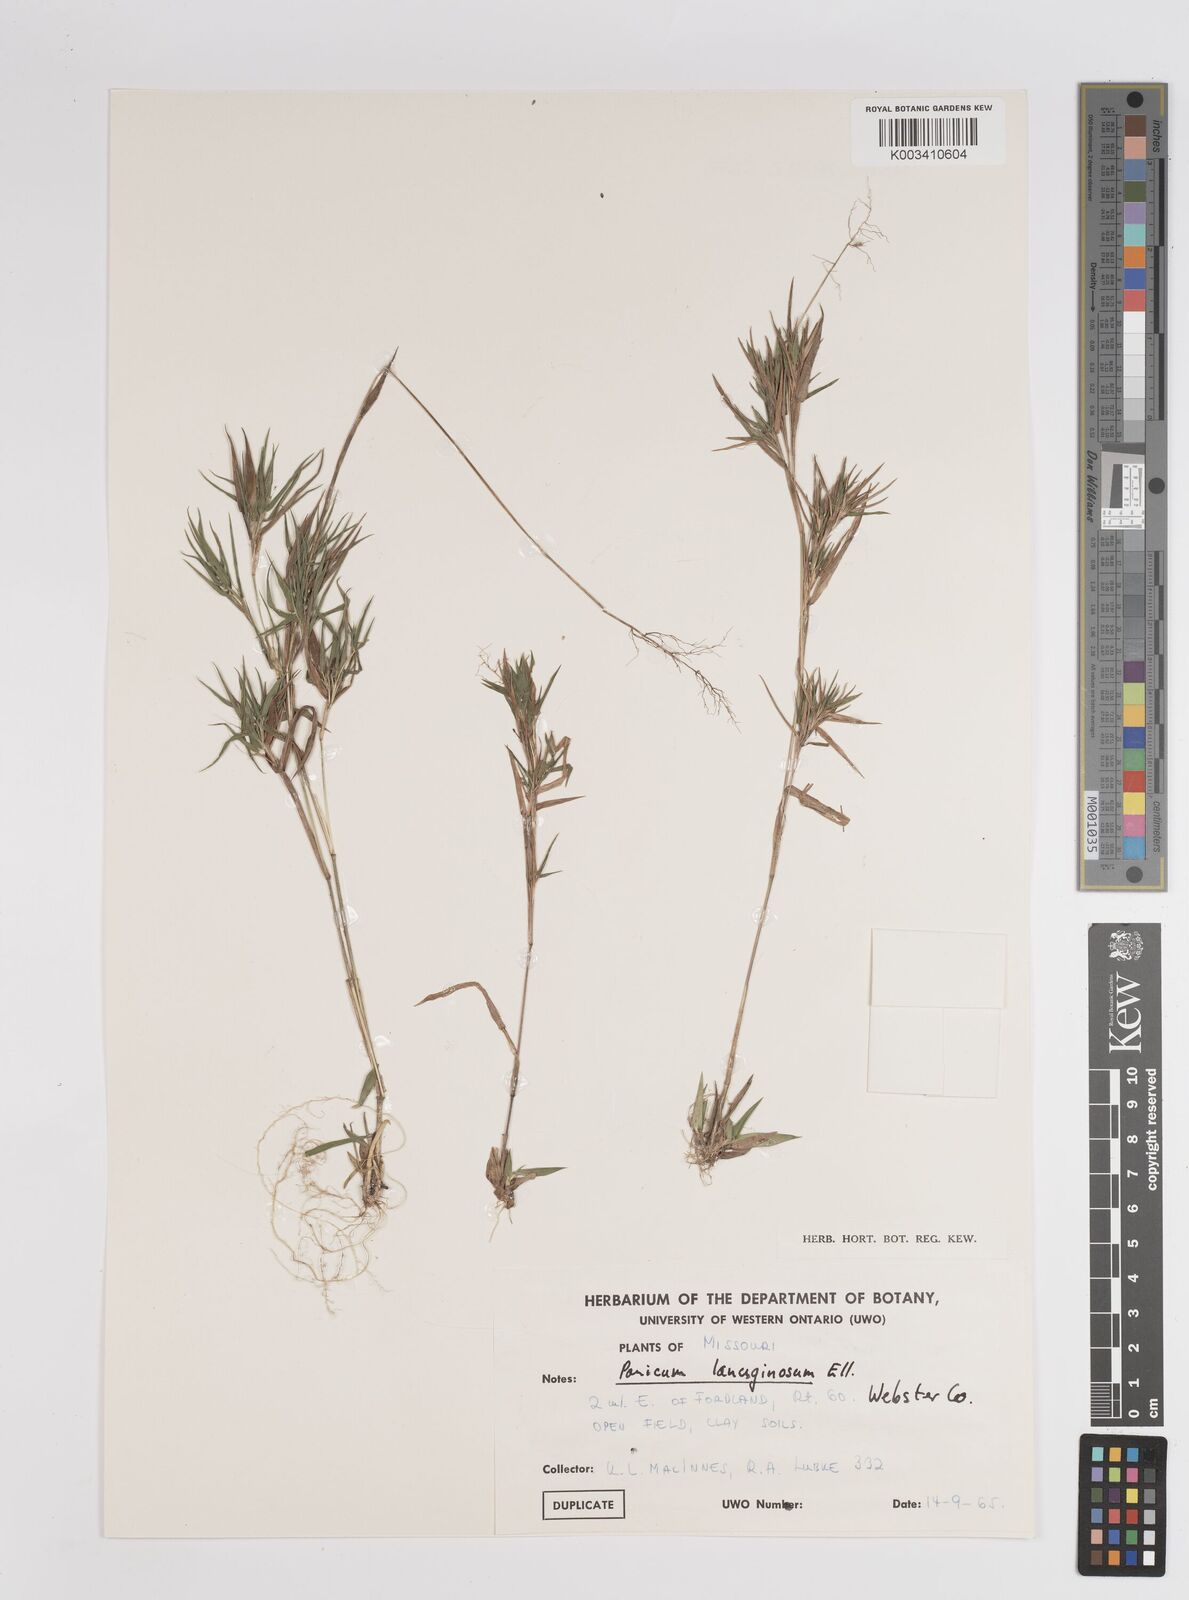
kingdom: Plantae
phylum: Tracheophyta
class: Liliopsida
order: Poales
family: Poaceae
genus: Dichanthelium
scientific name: Dichanthelium lanuginosum
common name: Woolly panicgrass
